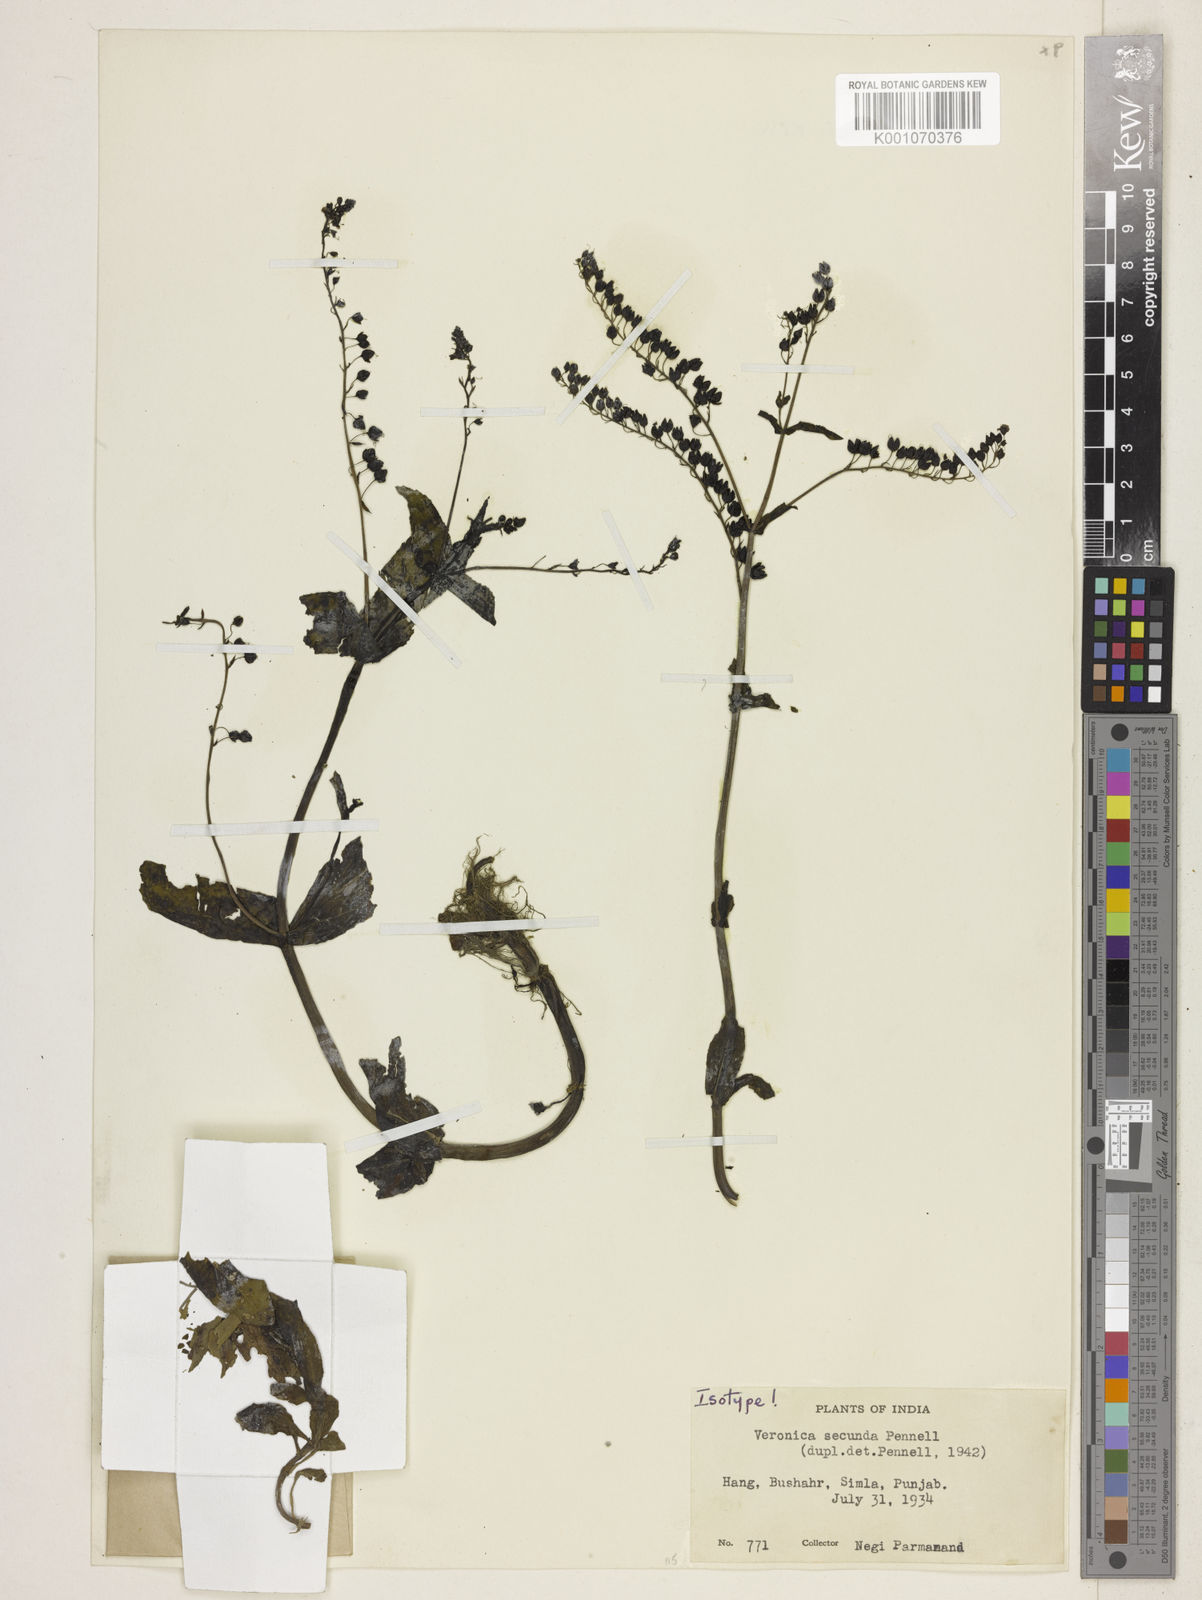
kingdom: Plantae
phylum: Tracheophyta
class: Magnoliopsida
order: Lamiales
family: Plantaginaceae
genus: Veronica
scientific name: Veronica michauxii
